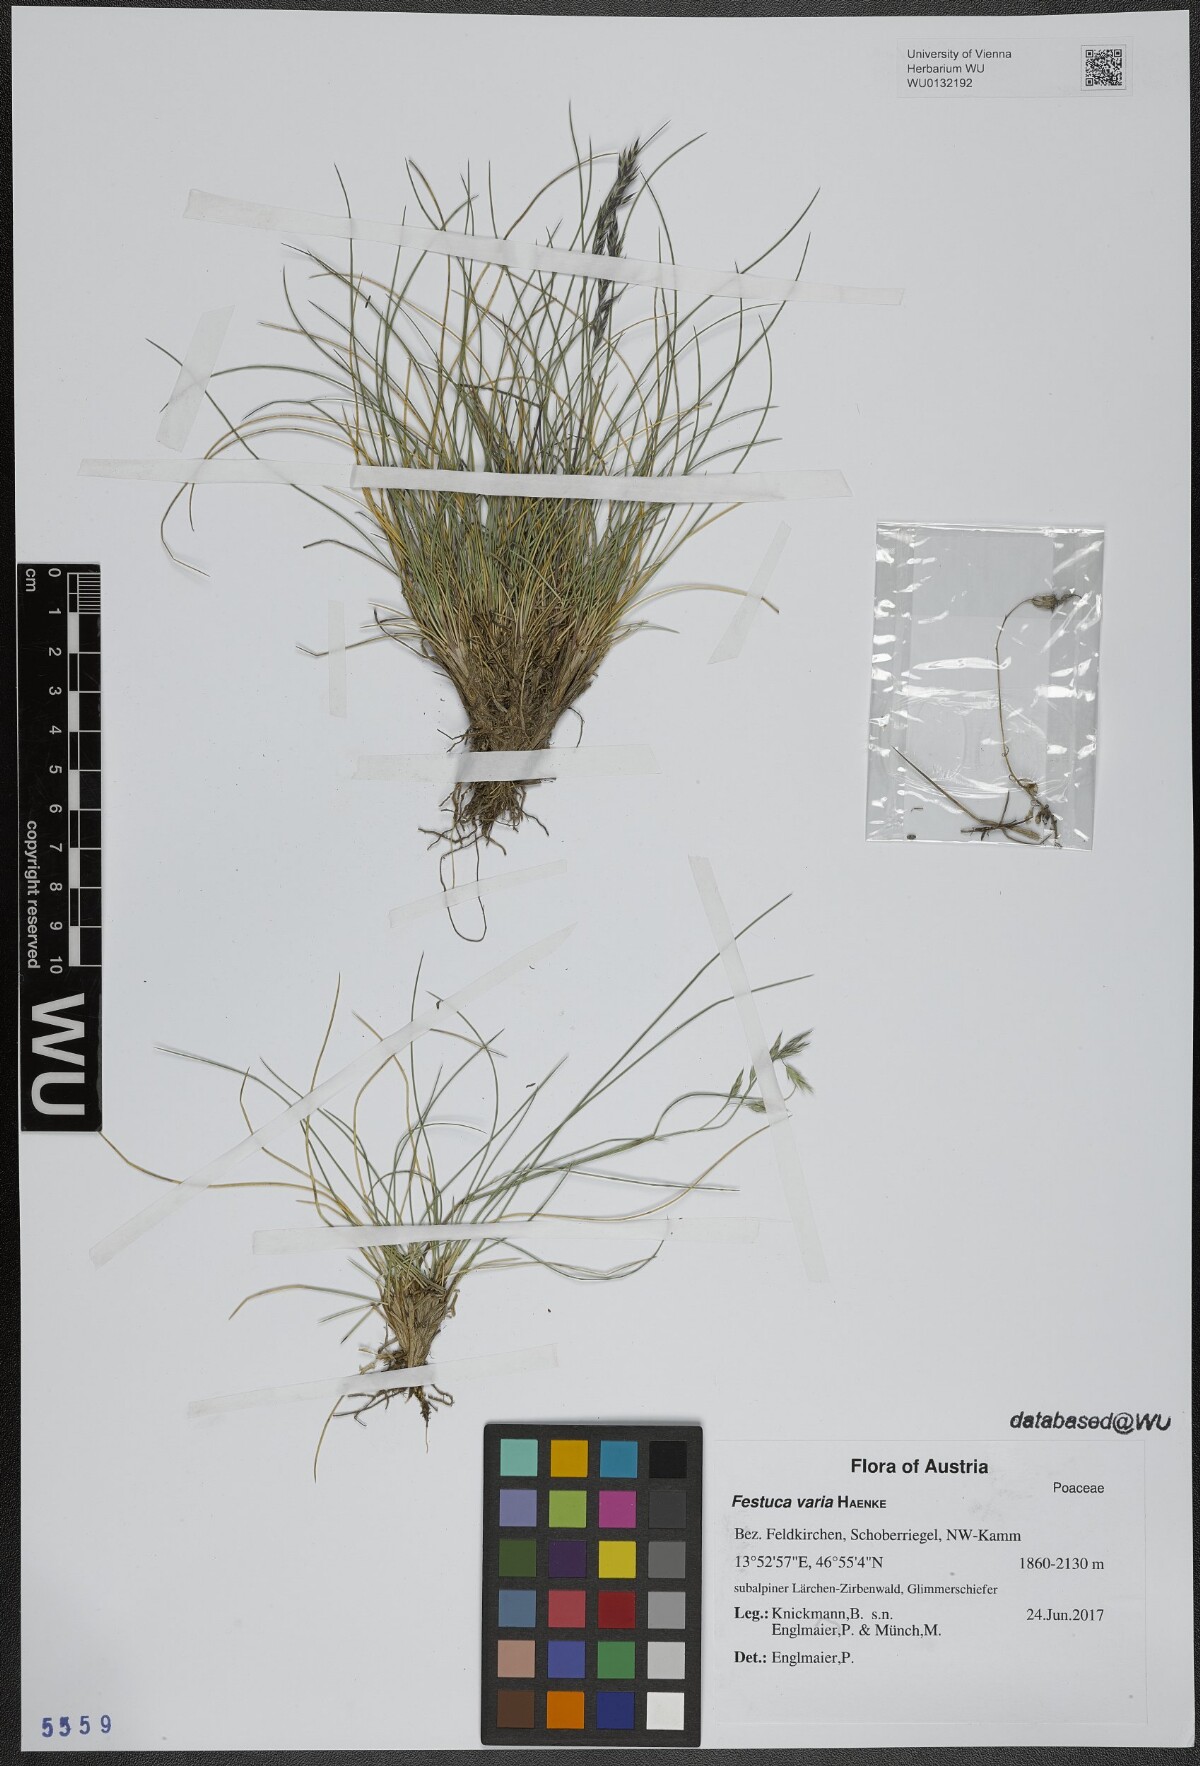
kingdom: Plantae
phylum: Tracheophyta
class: Liliopsida
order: Poales
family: Poaceae
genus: Festuca
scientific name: Festuca varia
